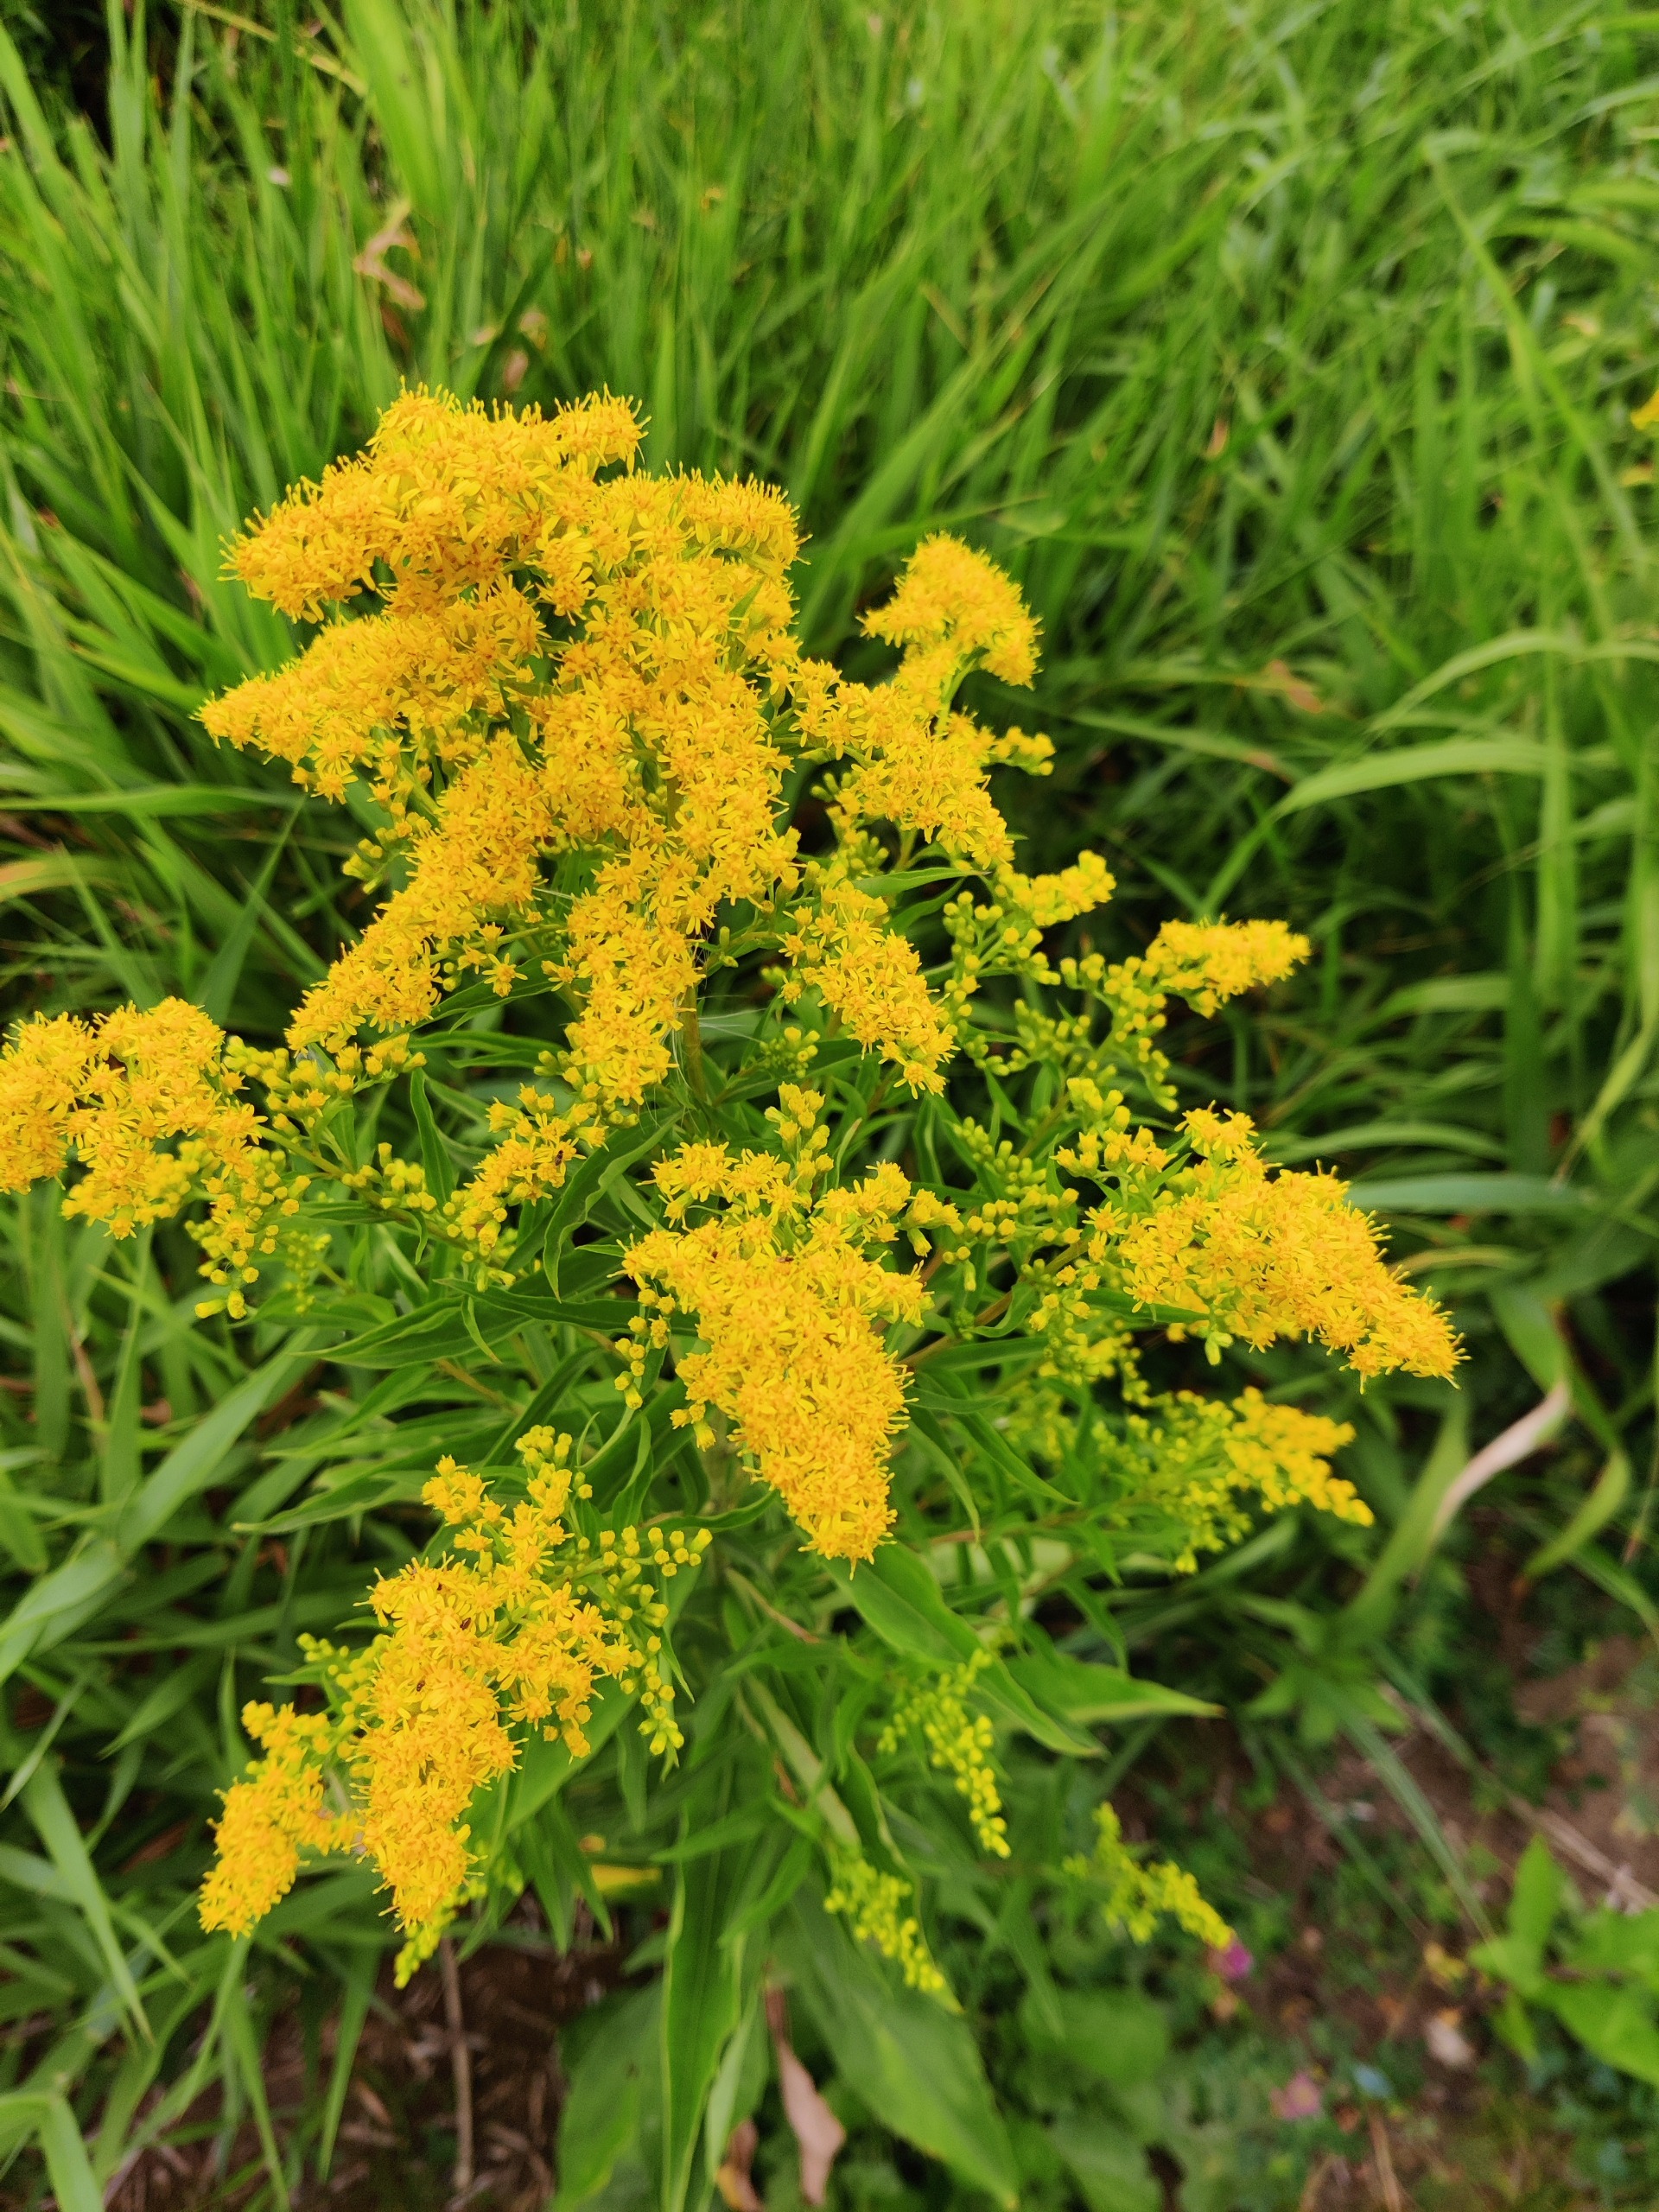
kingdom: Plantae
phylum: Tracheophyta
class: Magnoliopsida
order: Asterales
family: Asteraceae
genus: Solidago
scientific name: Solidago gigantea
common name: Sildig gyldenris
